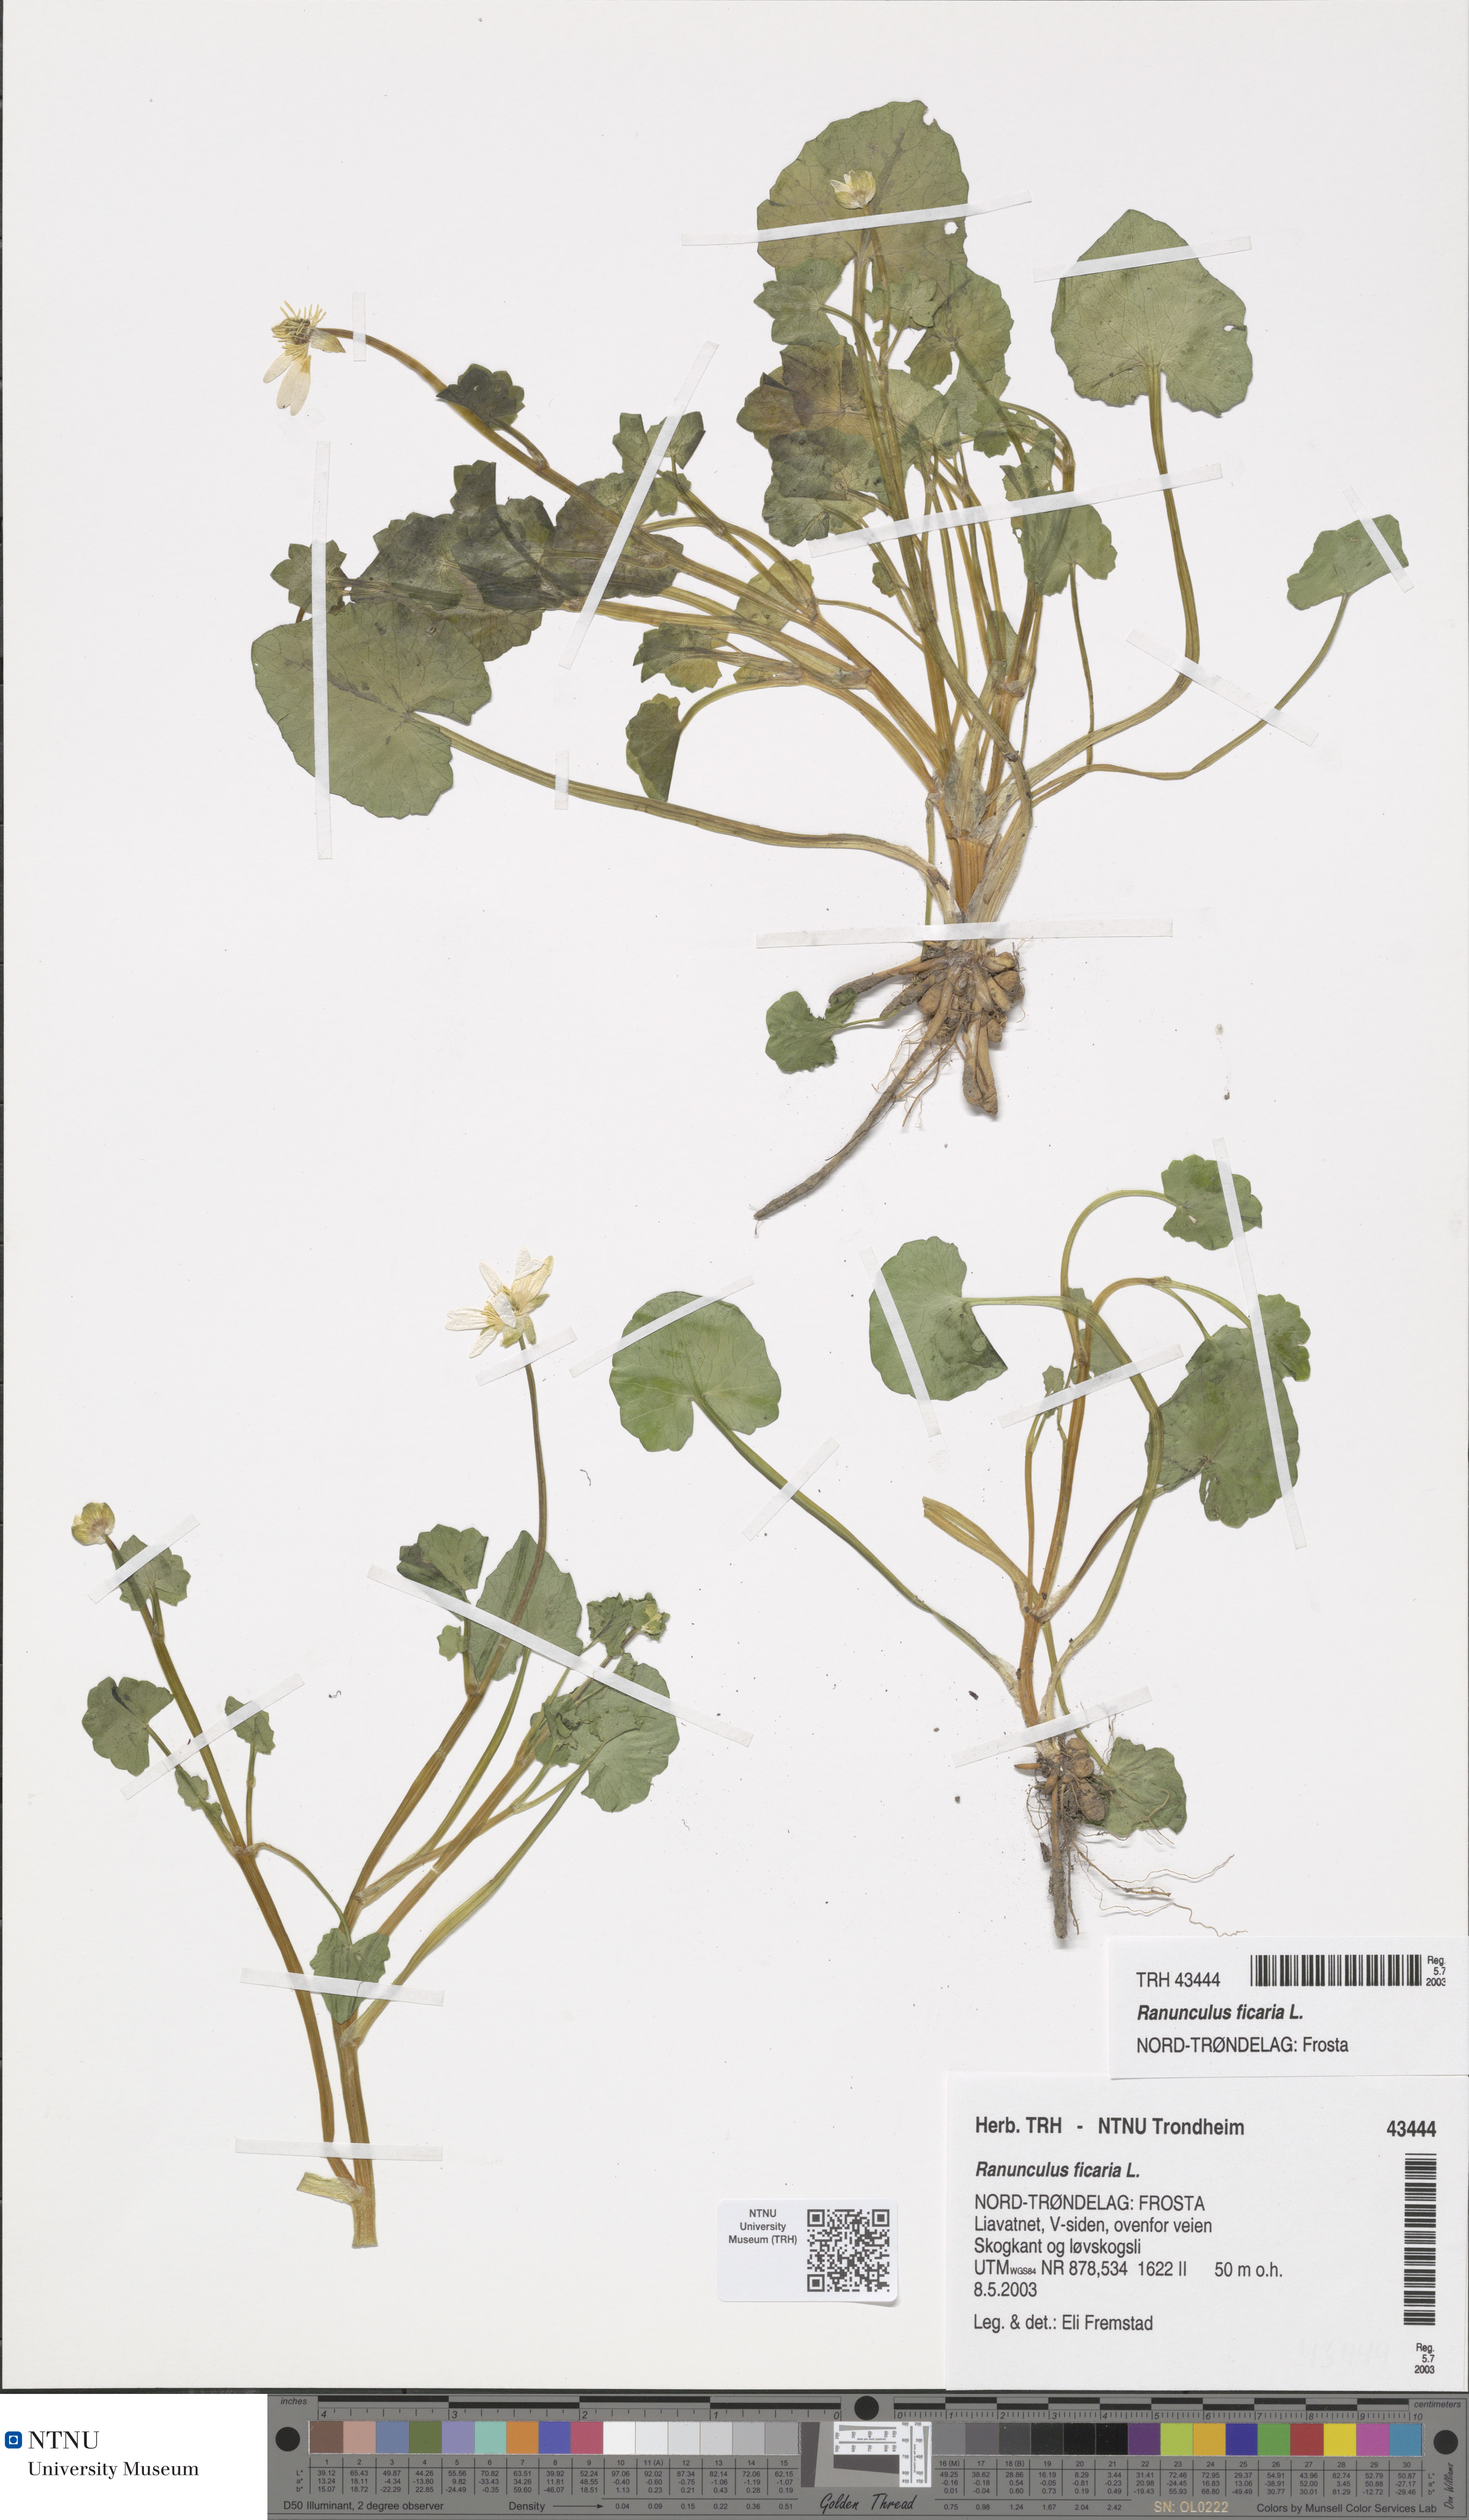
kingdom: Plantae
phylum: Tracheophyta
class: Magnoliopsida
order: Ranunculales
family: Ranunculaceae
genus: Ficaria
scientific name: Ficaria verna
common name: Lesser celandine
